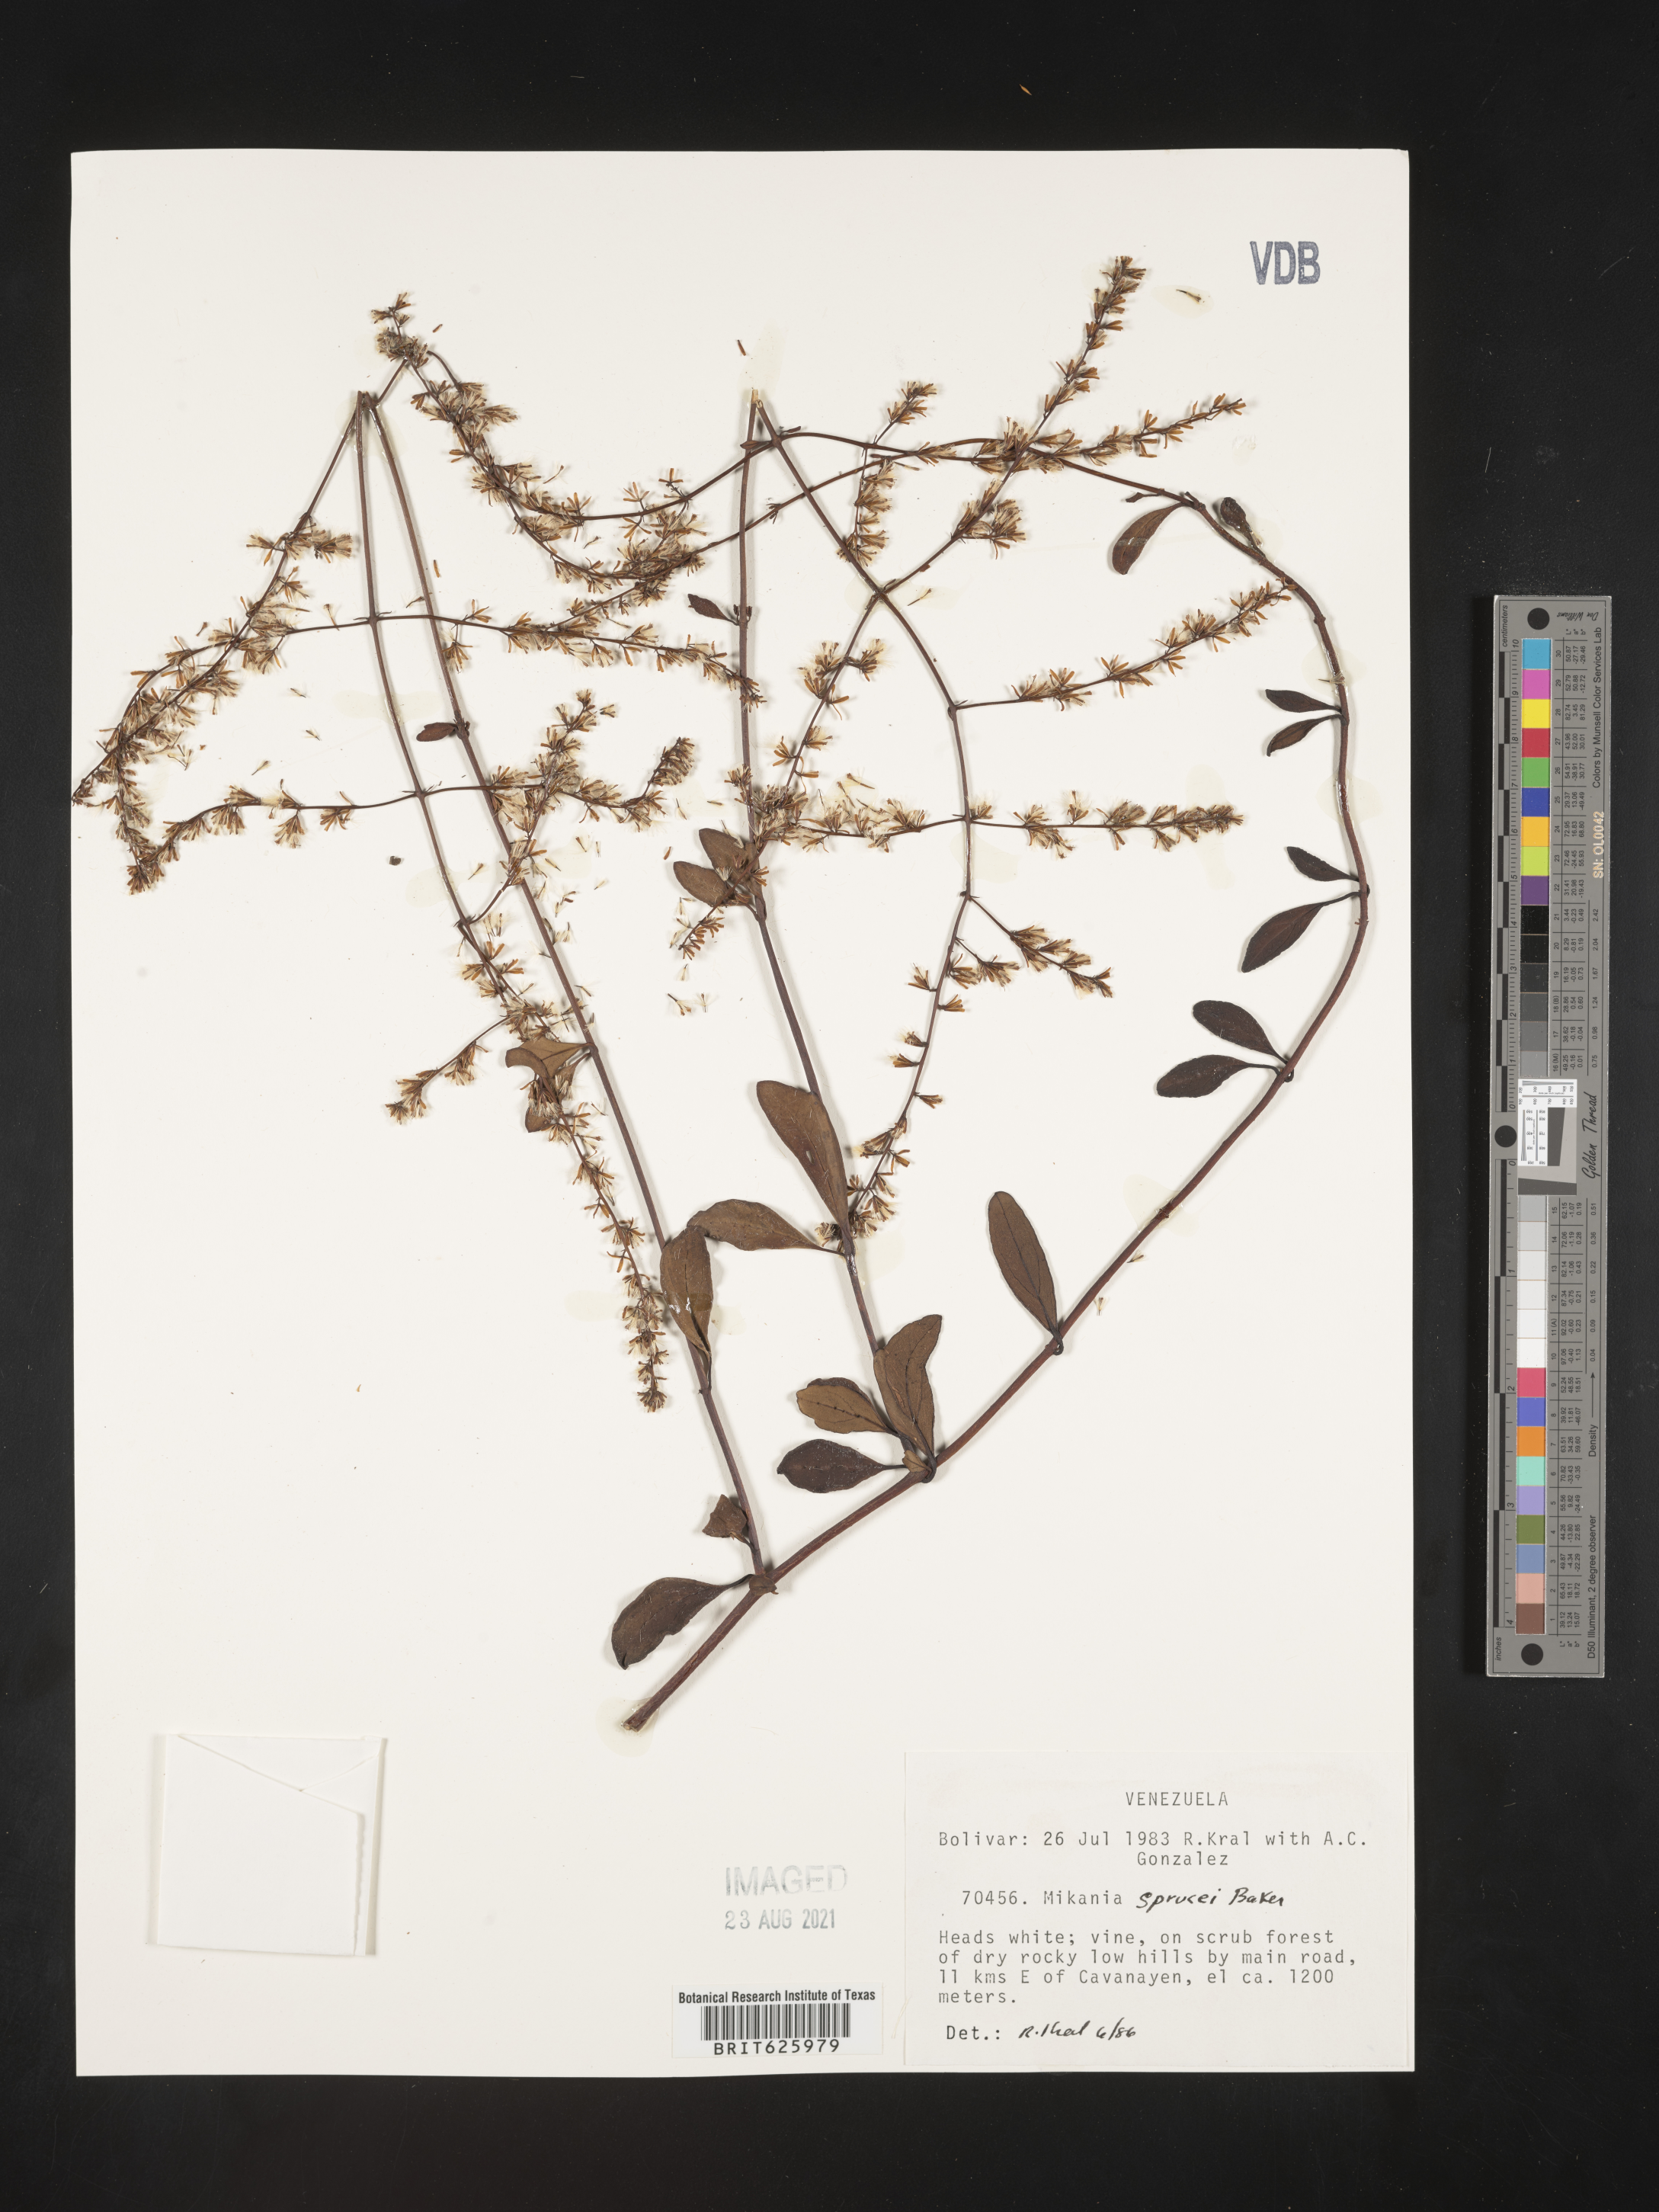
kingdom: Plantae
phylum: Tracheophyta
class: Magnoliopsida
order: Asterales
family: Asteraceae
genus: Mikania
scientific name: Mikania sprucei
